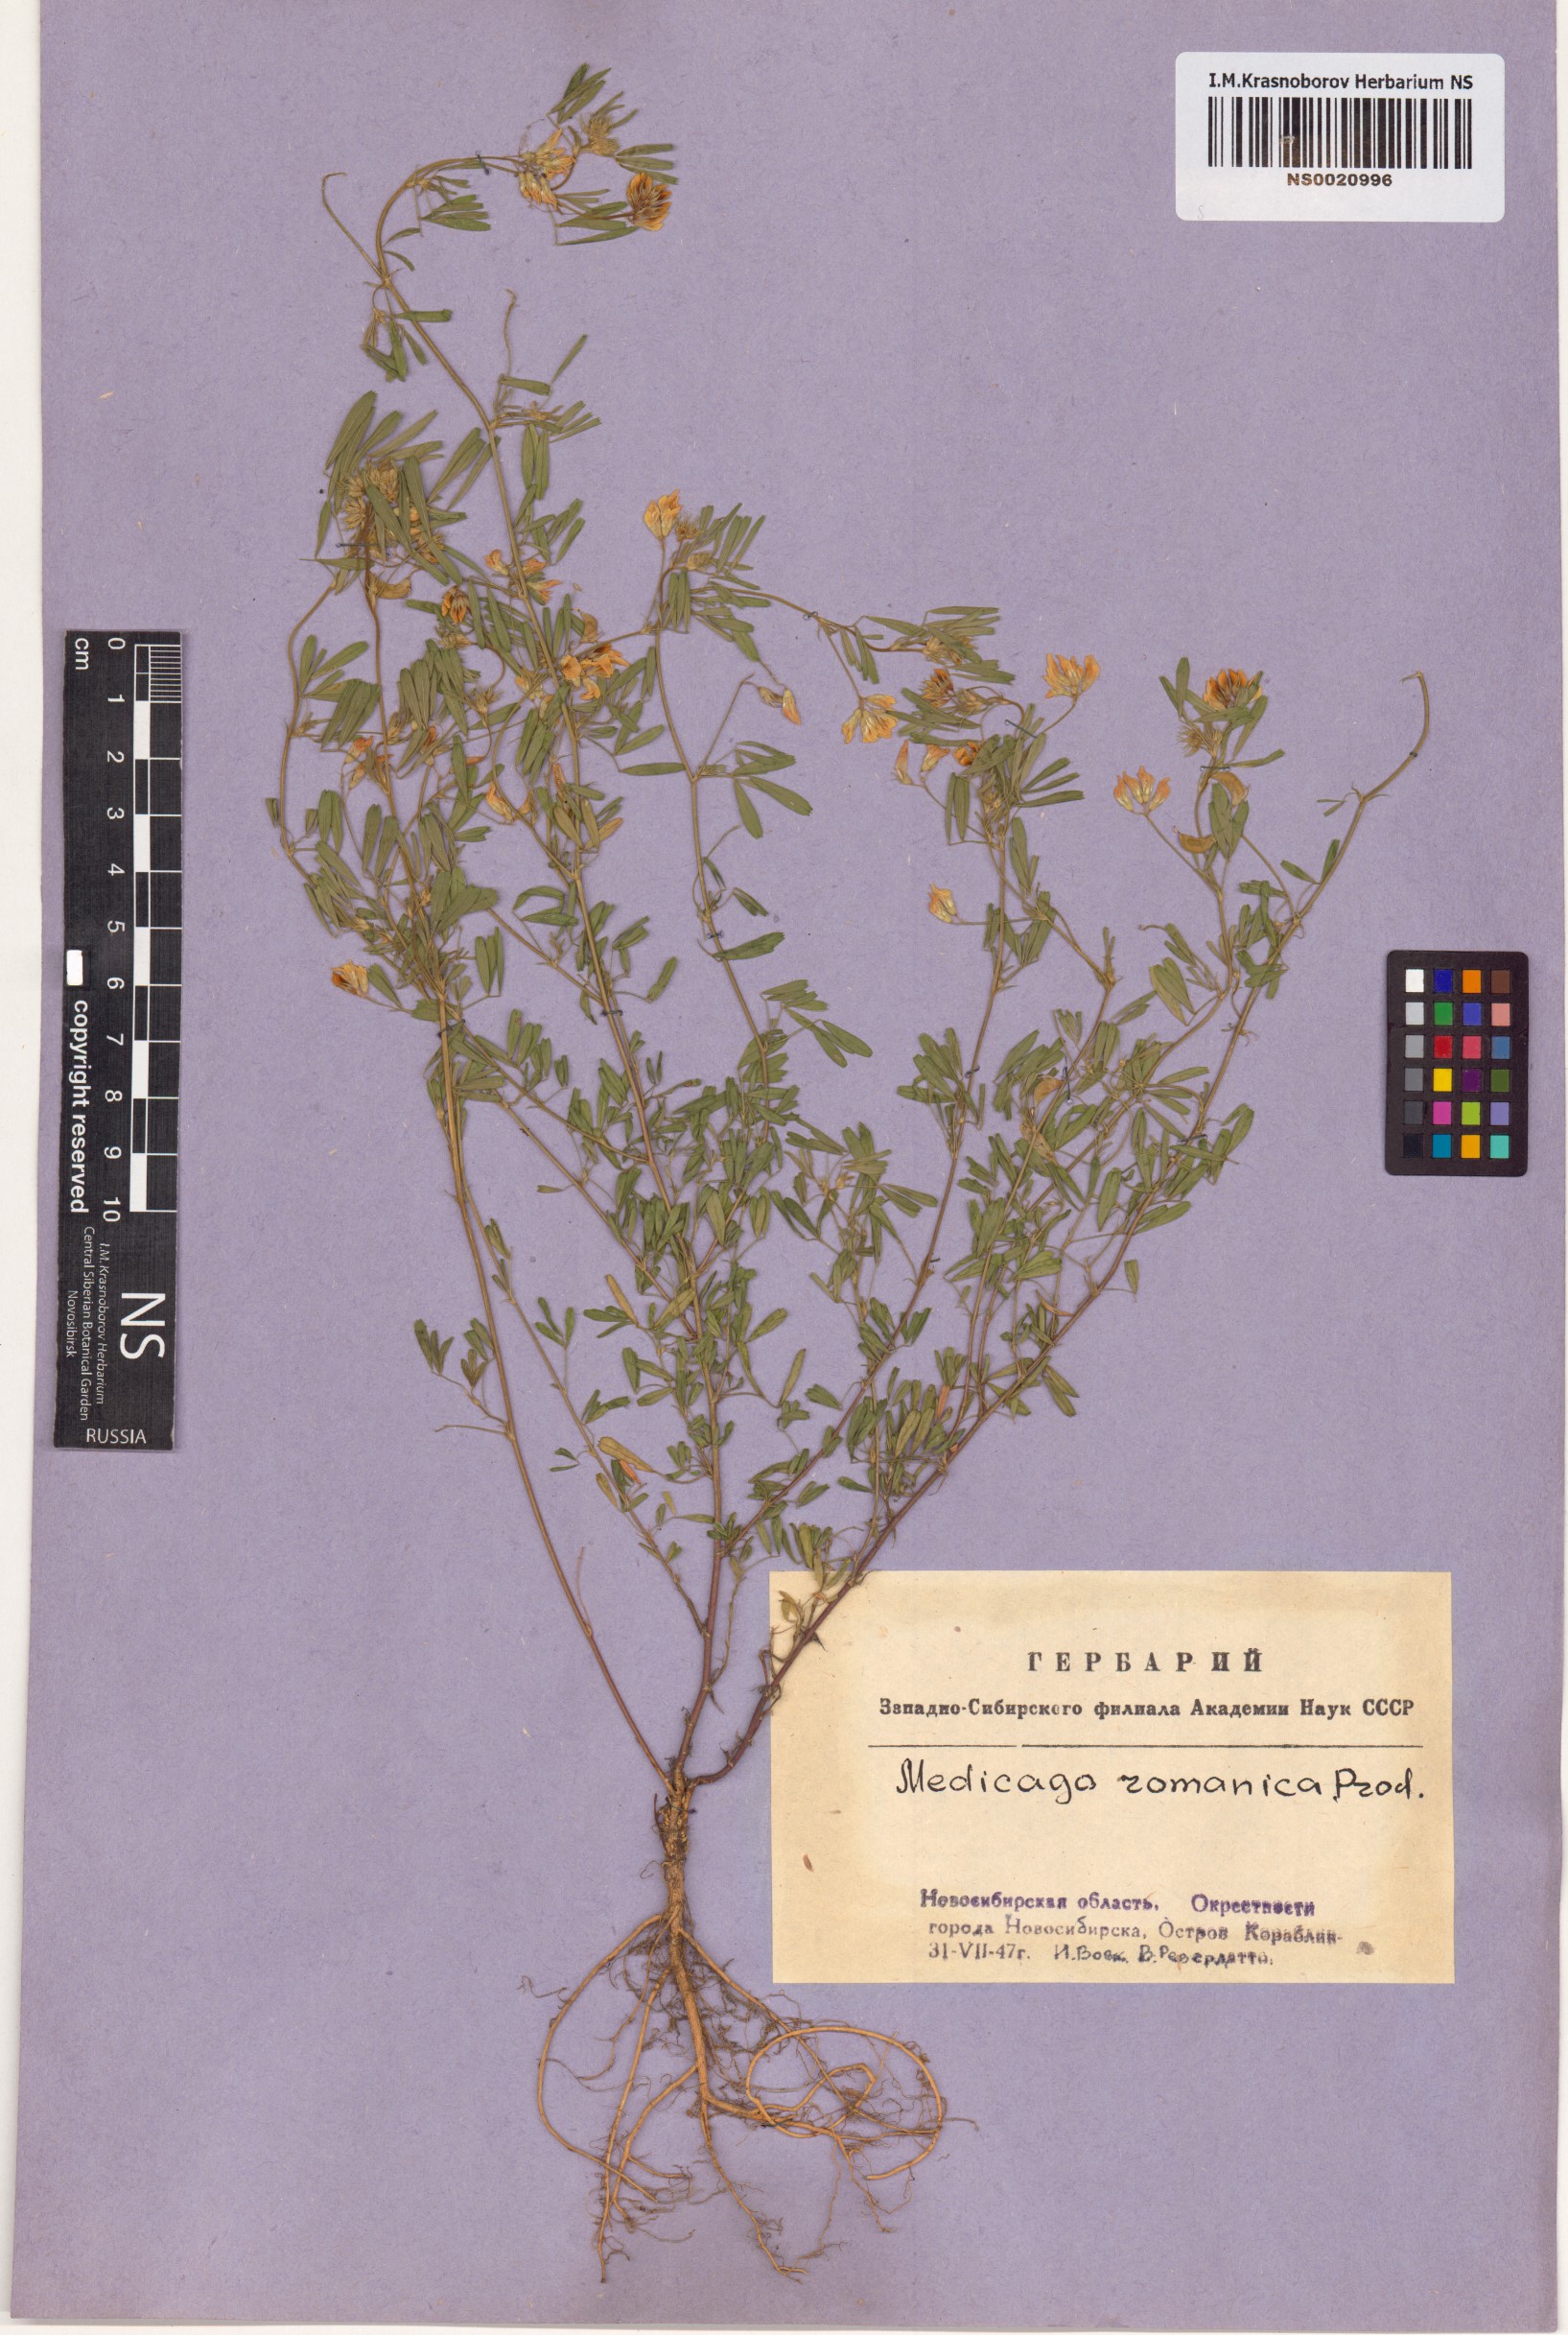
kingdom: Plantae
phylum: Tracheophyta
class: Magnoliopsida
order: Fabales
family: Fabaceae
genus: Medicago
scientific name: Medicago falcata
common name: Sickle medick
